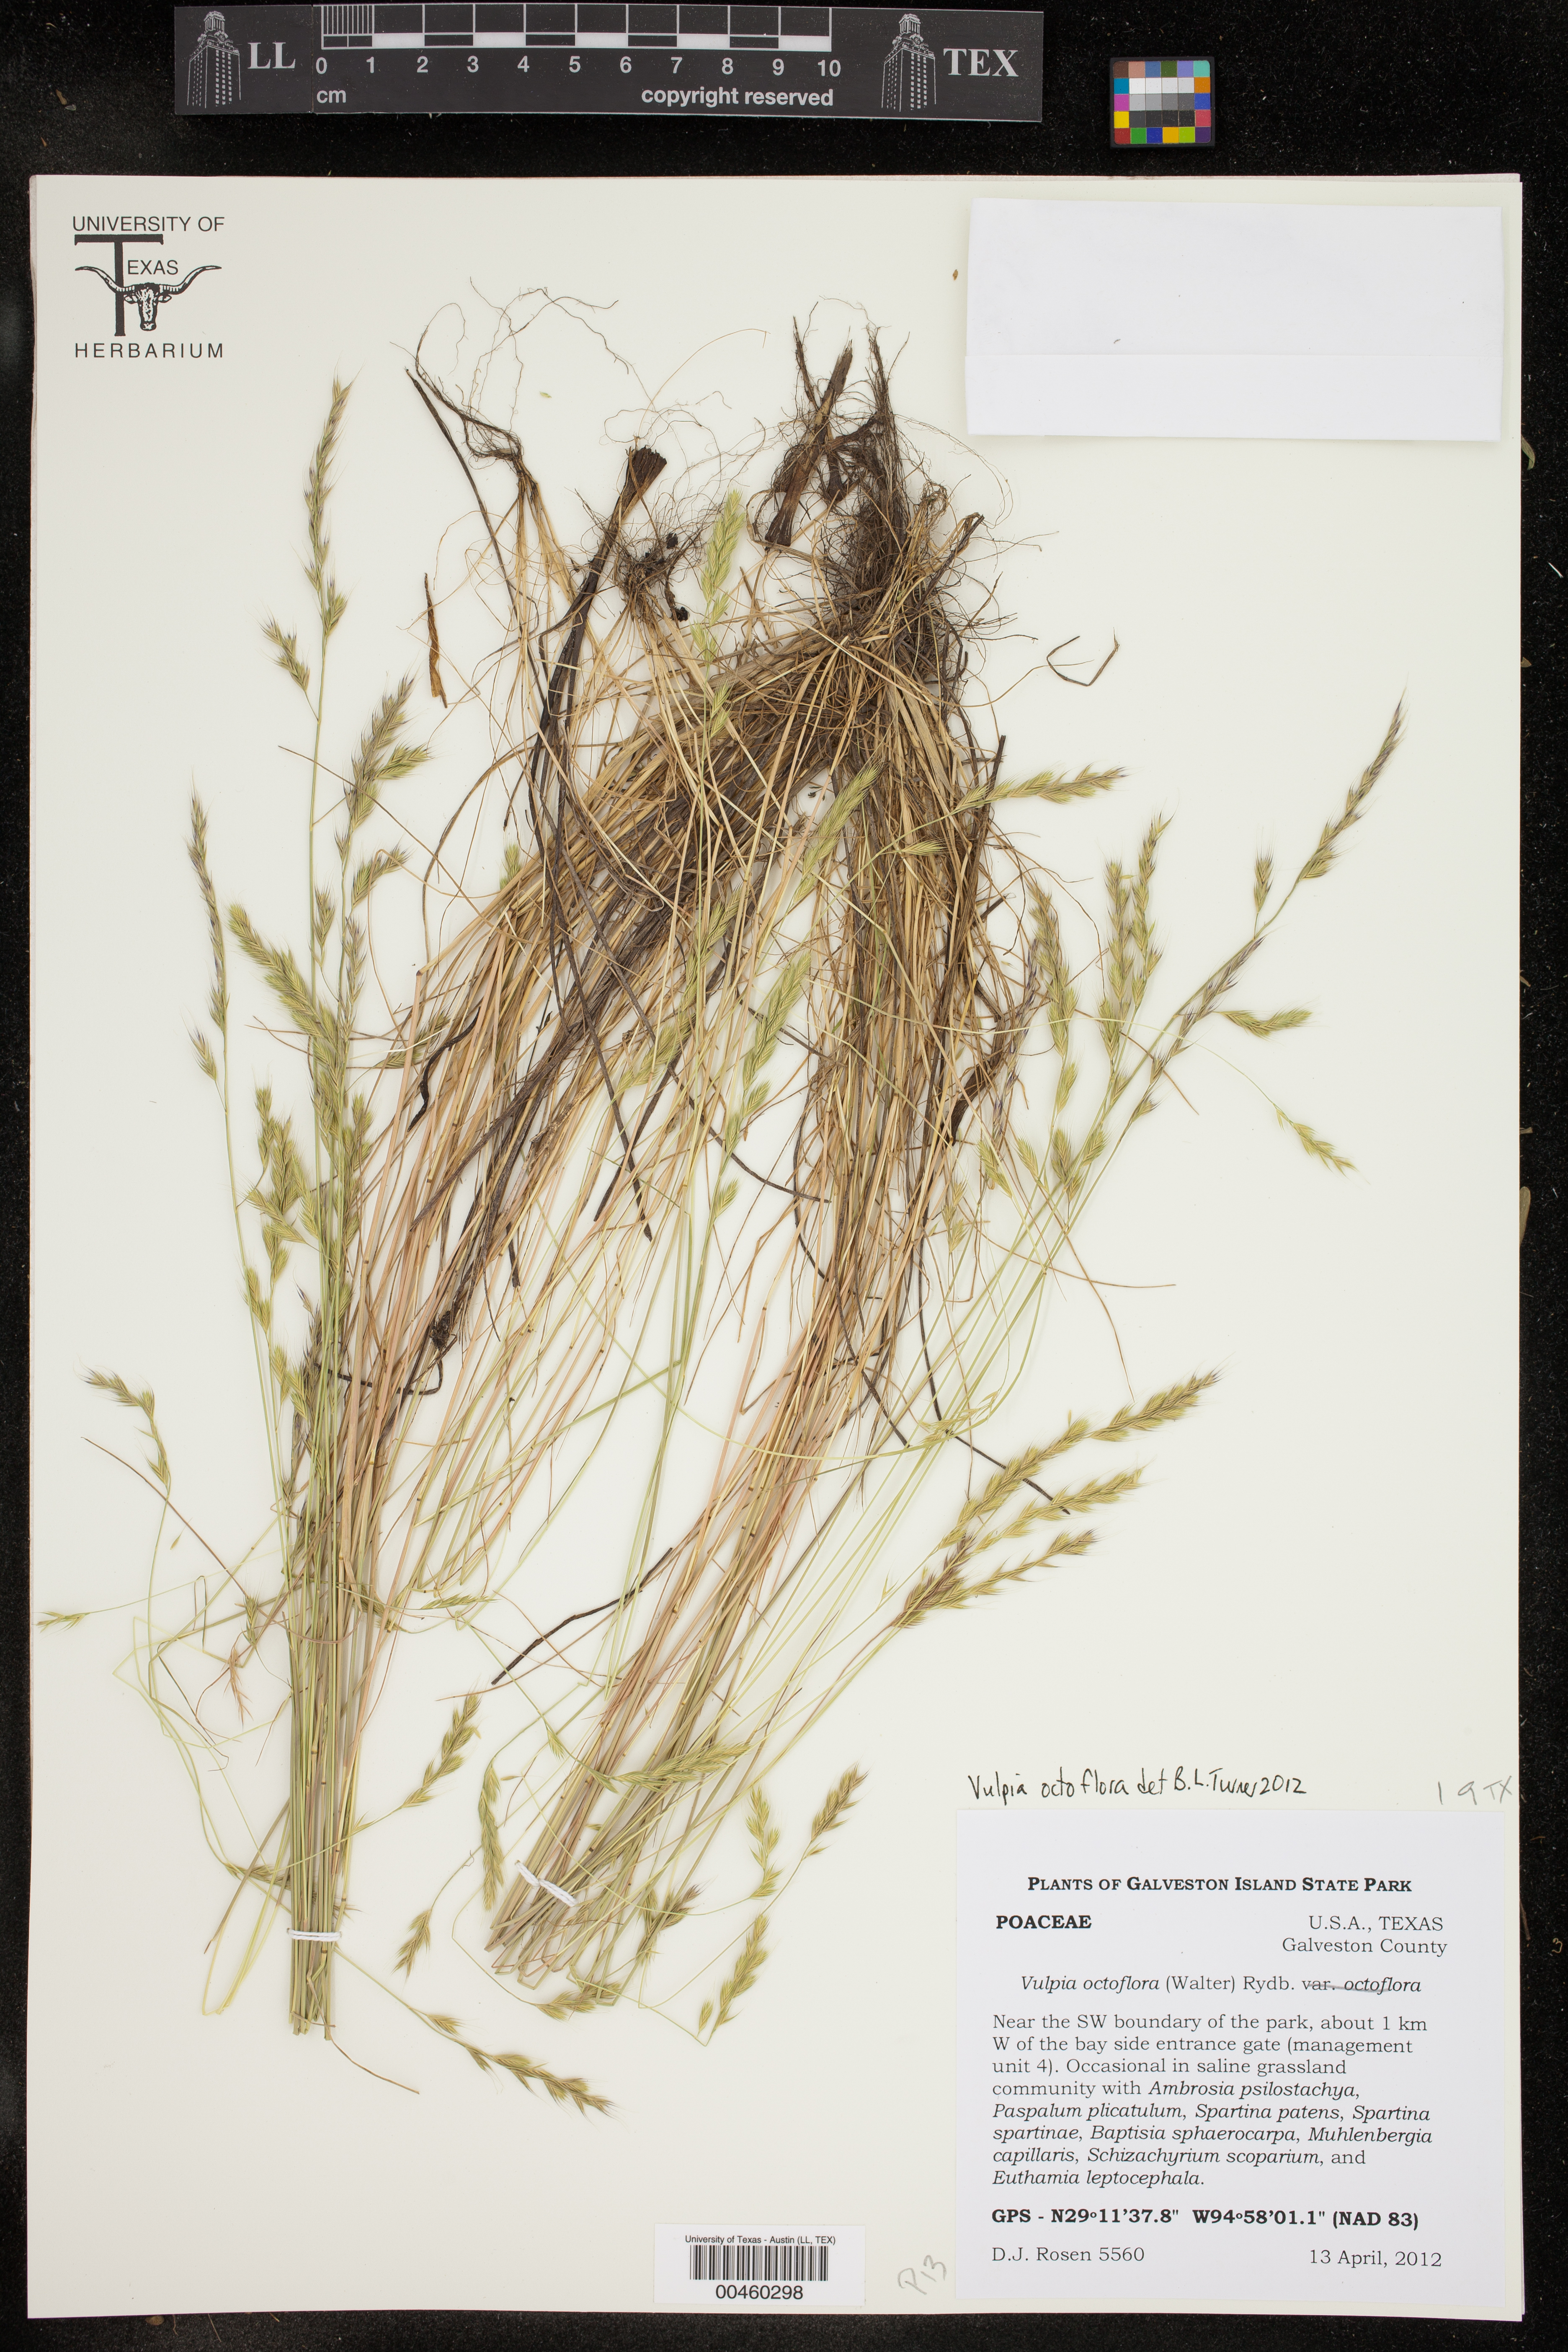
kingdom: Plantae
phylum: Tracheophyta
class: Liliopsida
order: Poales
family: Poaceae
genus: Festuca
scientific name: Festuca octoflora
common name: Sixweeks grass
